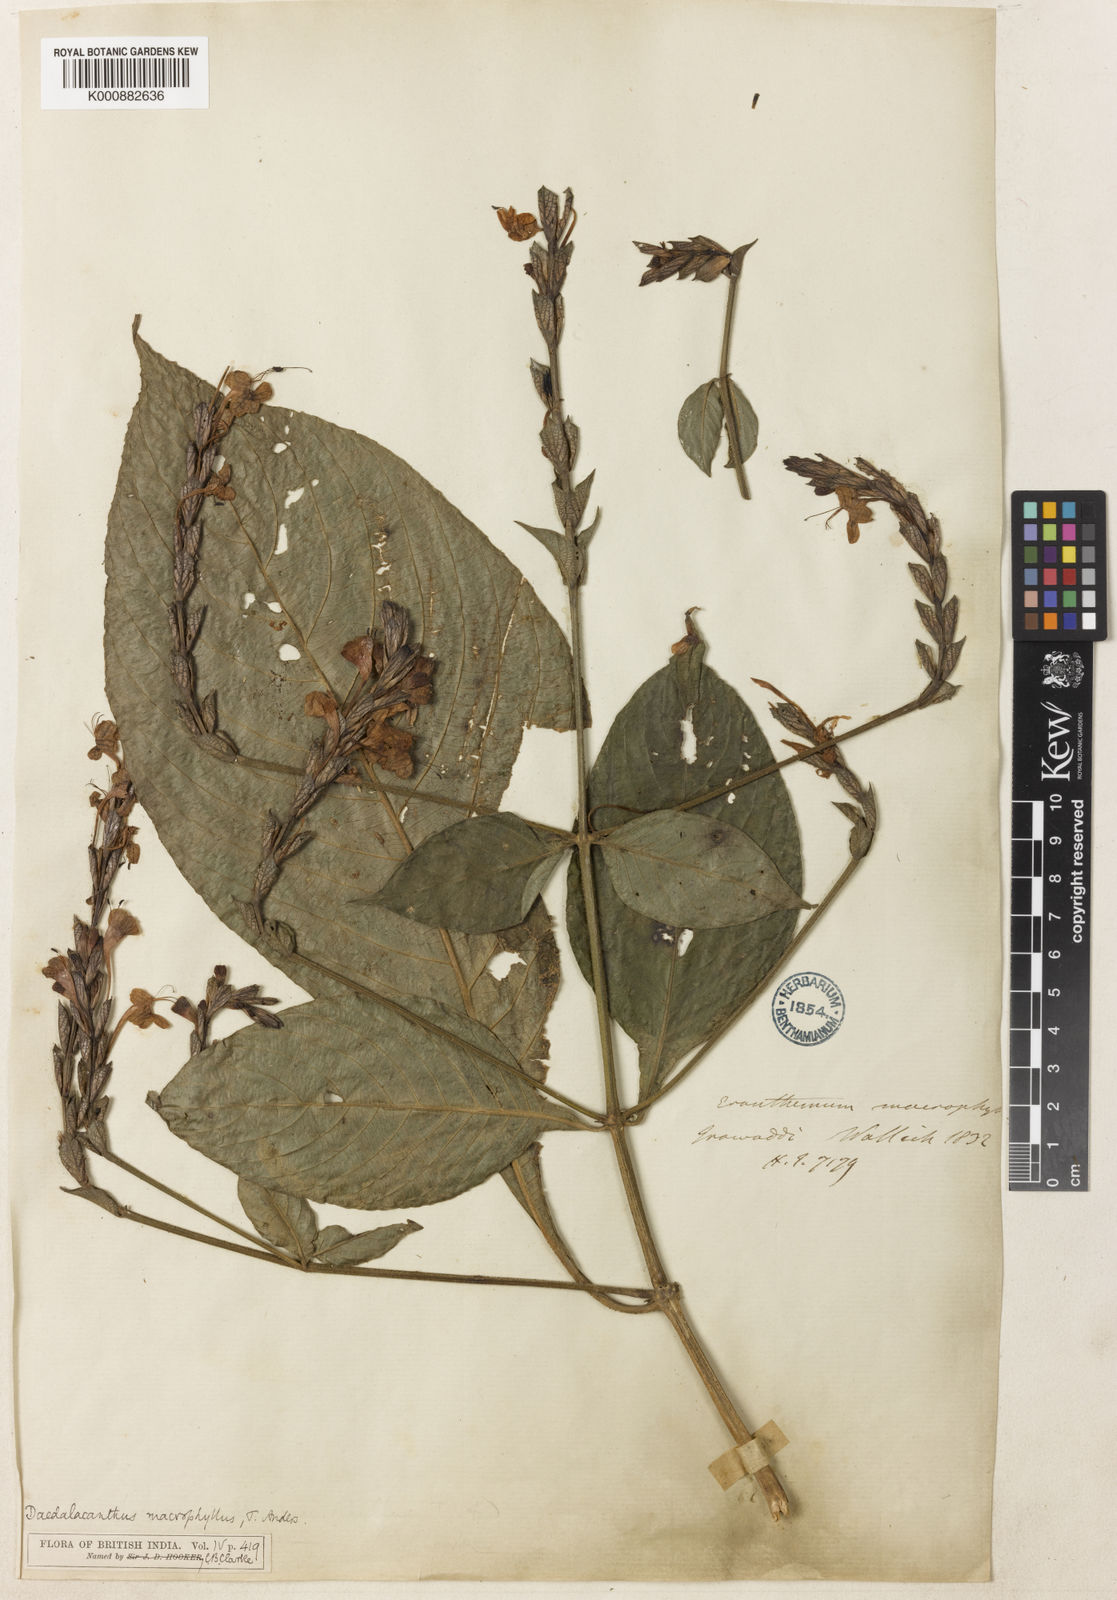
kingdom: Plantae
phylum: Tracheophyta
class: Magnoliopsida
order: Lamiales
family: Acanthaceae
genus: Pseuderanthemum
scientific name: Pseuderanthemum macrophyllum
